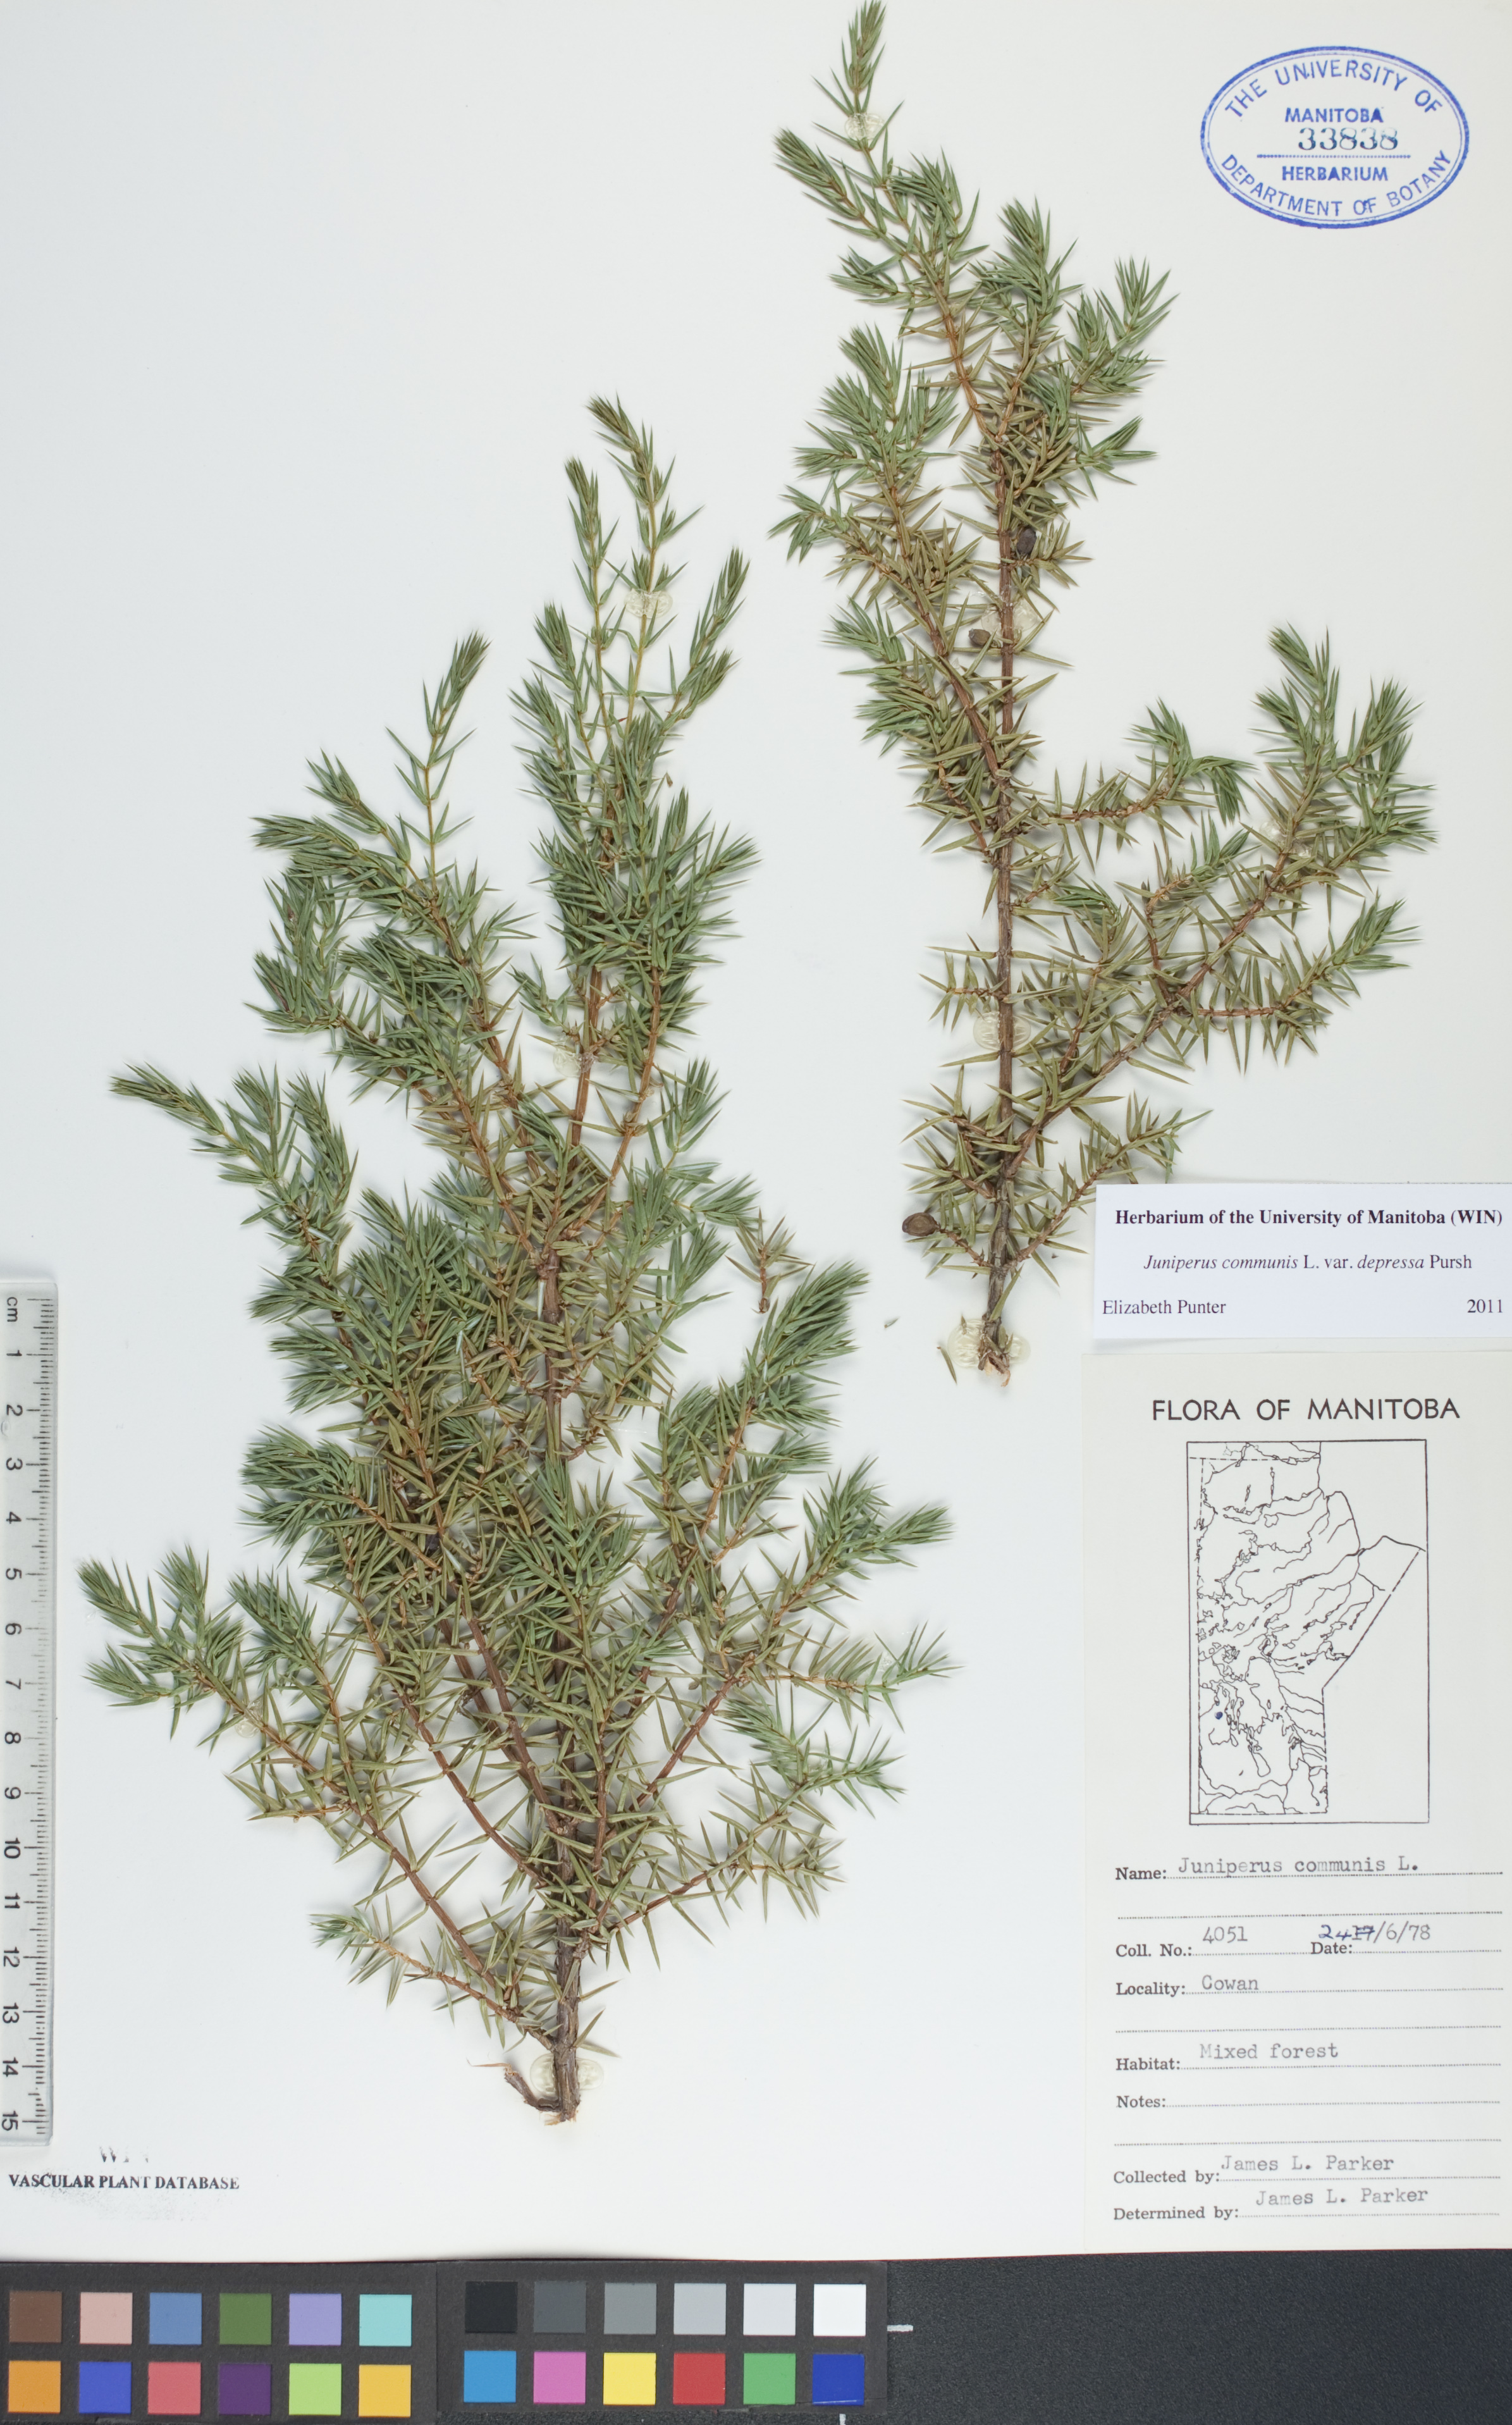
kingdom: Plantae
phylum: Tracheophyta
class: Pinopsida
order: Pinales
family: Cupressaceae
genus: Juniperus
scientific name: Juniperus communis
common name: Common juniper
